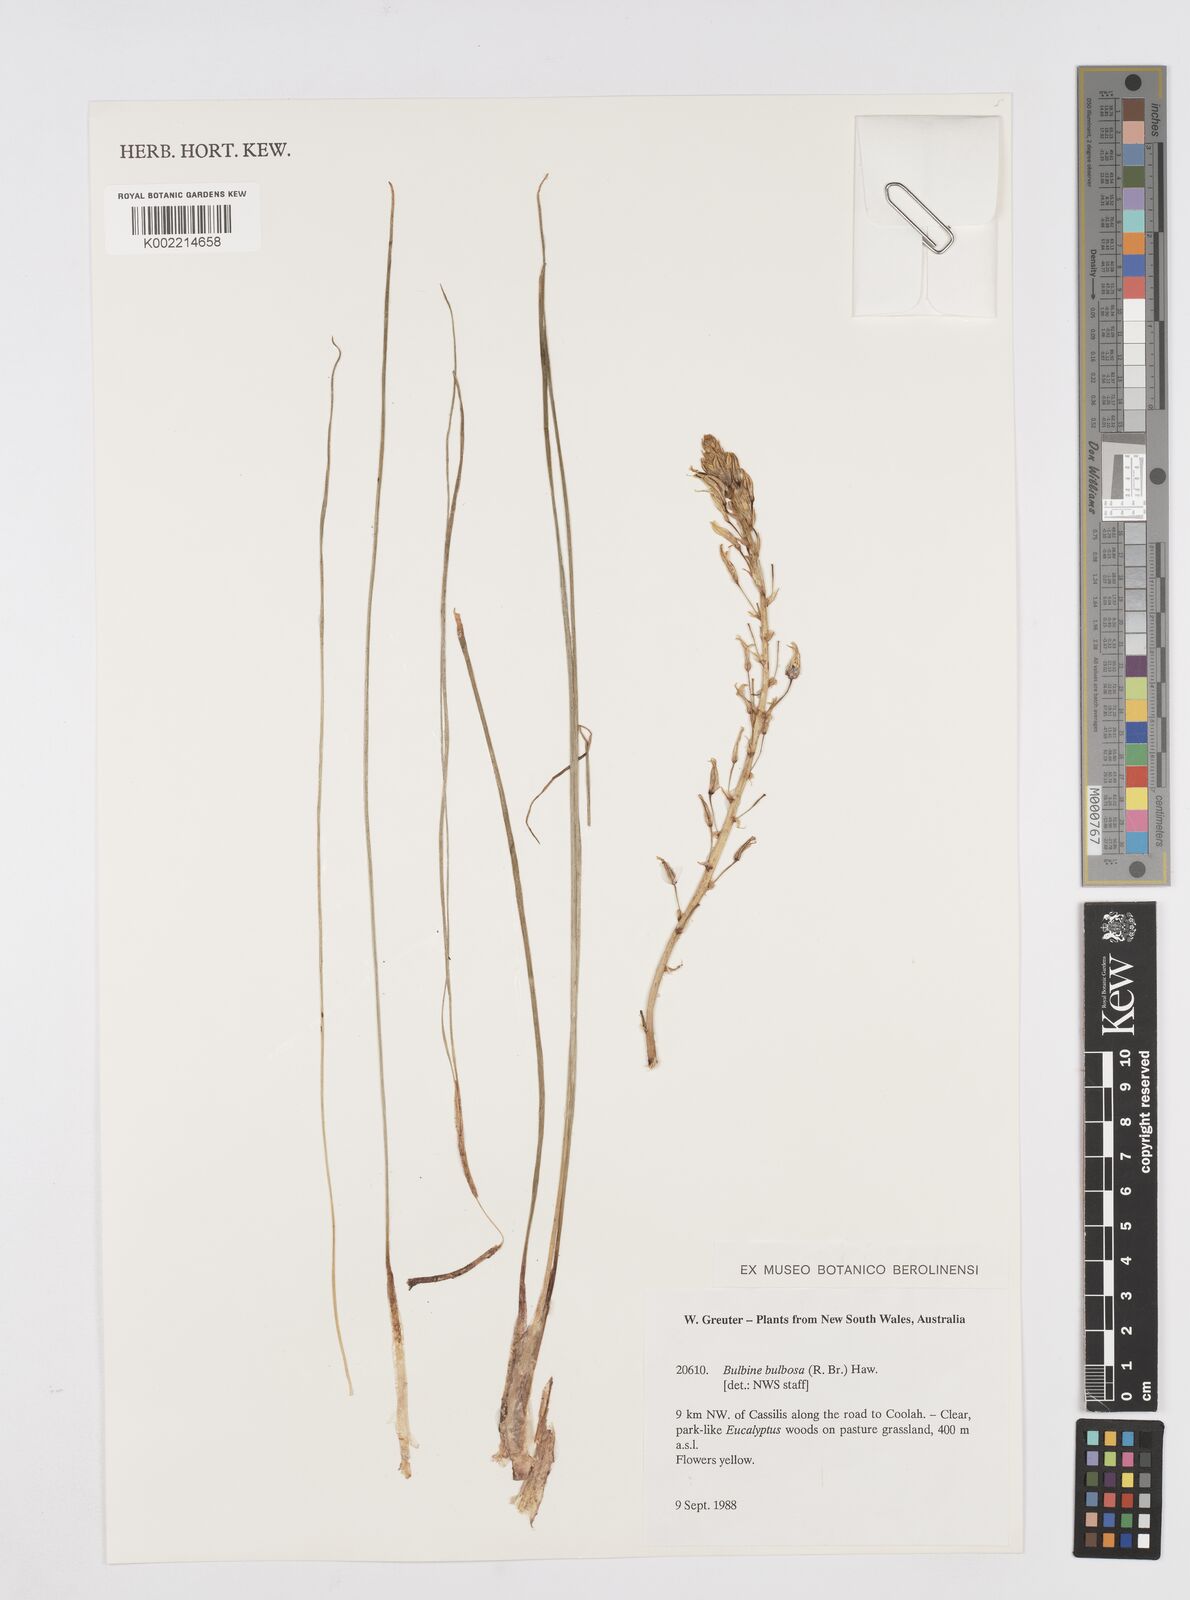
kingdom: Plantae
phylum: Tracheophyta
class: Liliopsida
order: Asparagales
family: Asphodelaceae
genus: Bulbine
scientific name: Bulbine bulbosa
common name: Golden-lily
